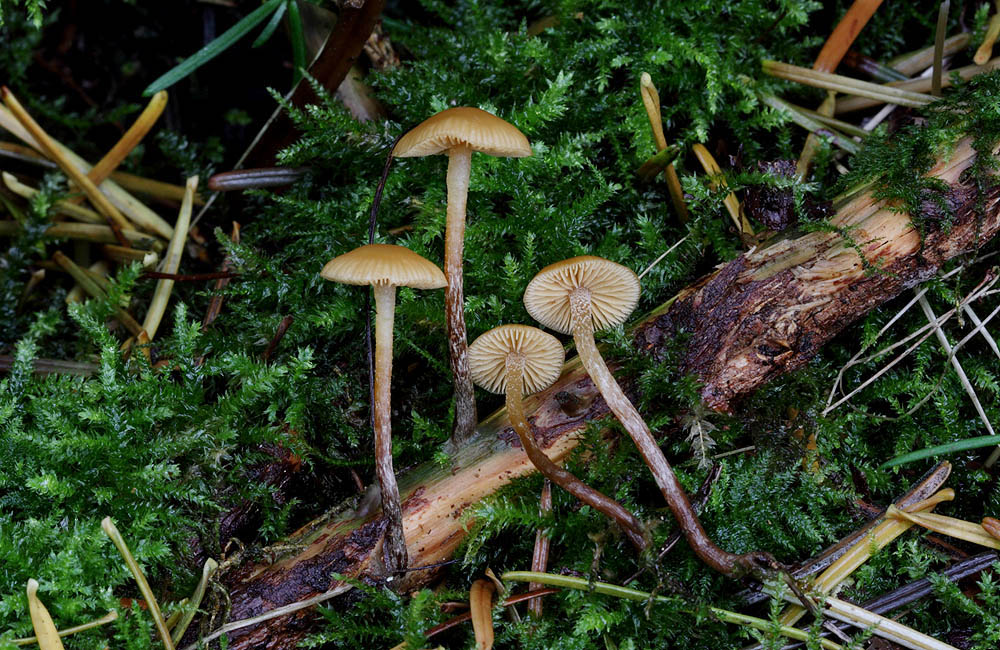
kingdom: Fungi
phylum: Basidiomycota
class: Agaricomycetes
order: Agaricales
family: Hymenogastraceae
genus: Galerina
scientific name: Galerina badipes
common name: brunstokket hjelmhat
